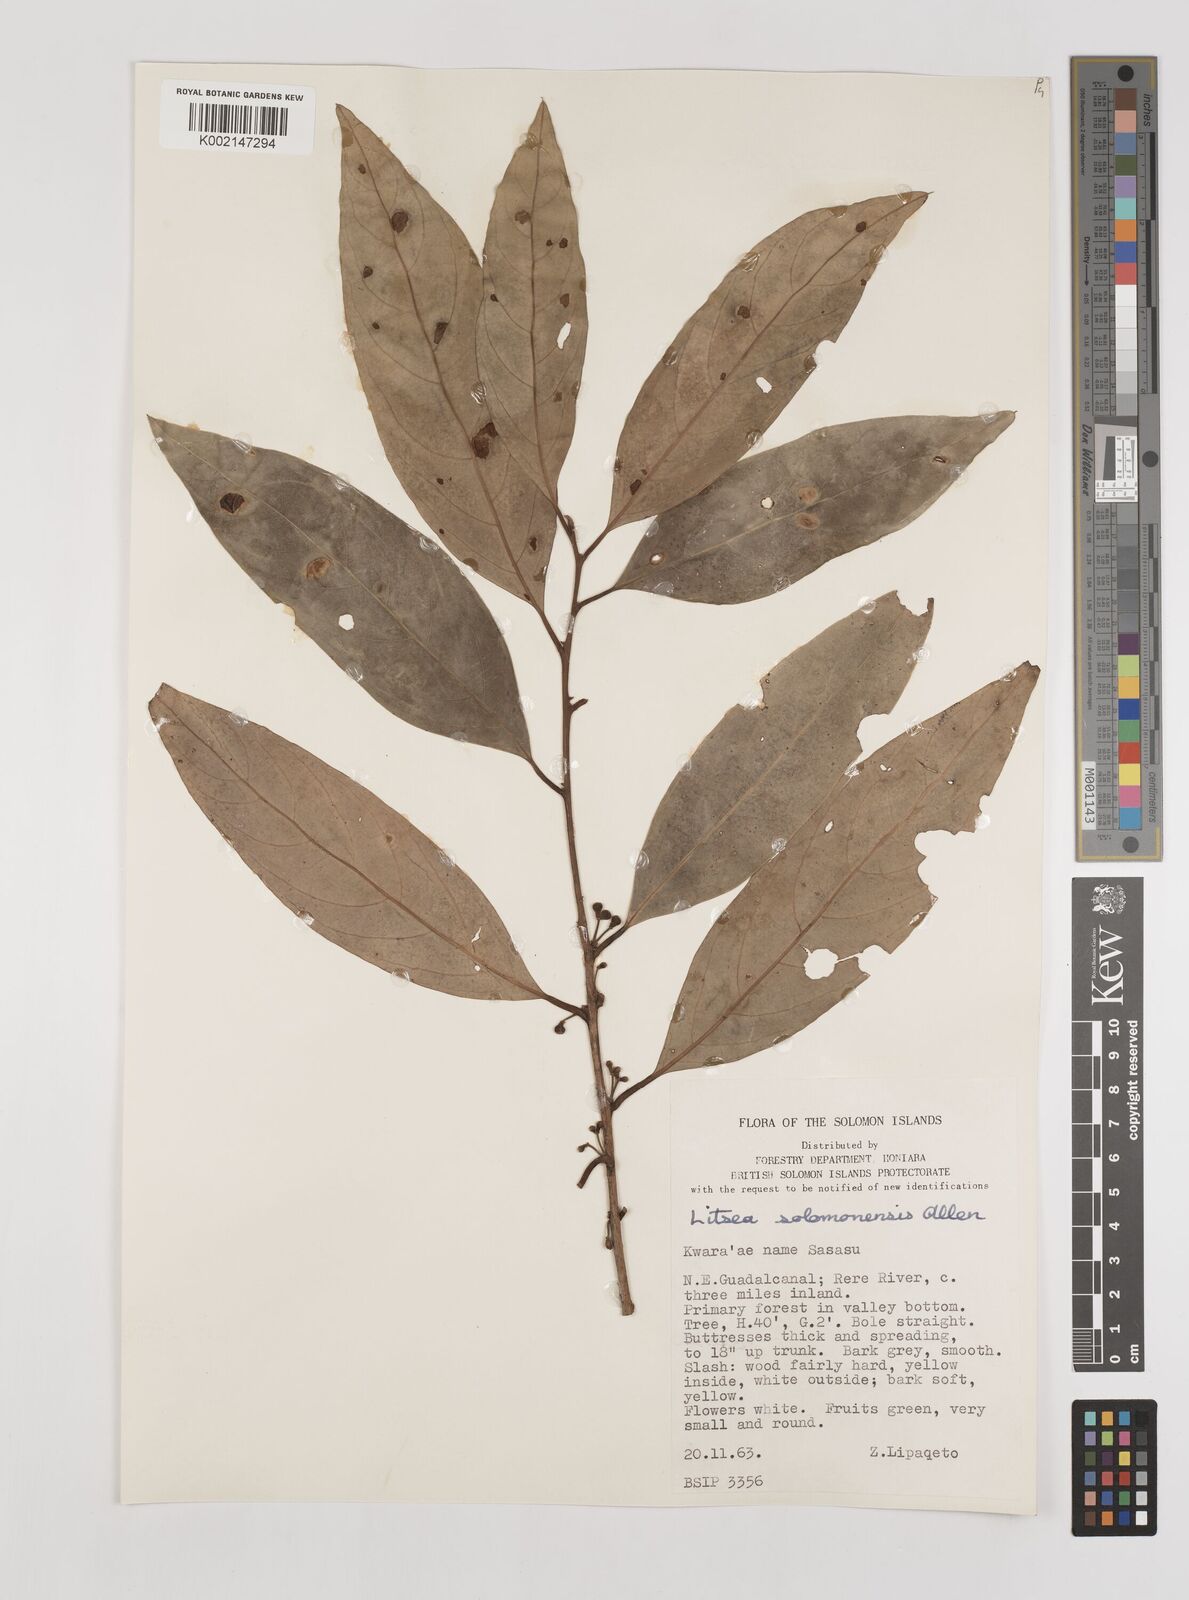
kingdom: Plantae
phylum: Tracheophyta
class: Magnoliopsida
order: Laurales
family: Lauraceae
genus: Litsea
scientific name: Litsea timoriana
